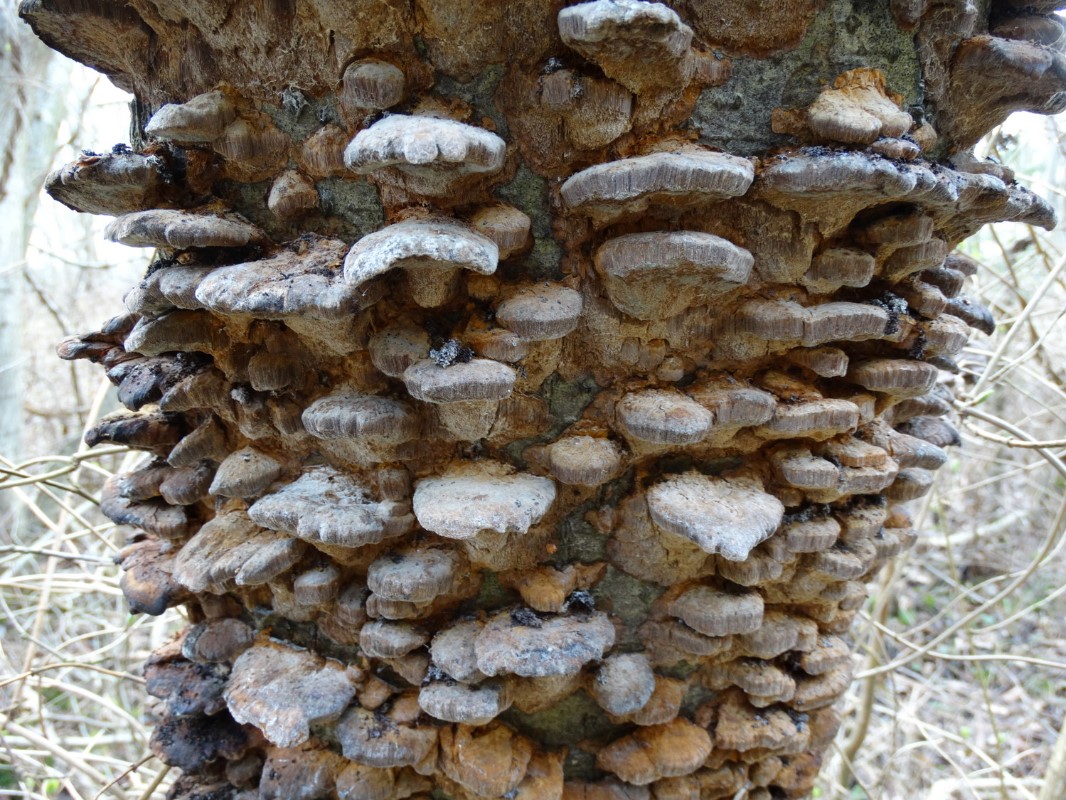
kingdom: Fungi
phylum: Basidiomycota
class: Agaricomycetes
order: Hymenochaetales
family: Hymenochaetaceae
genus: Xanthoporia
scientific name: Xanthoporia radiata
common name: elle-spejlporesvamp
